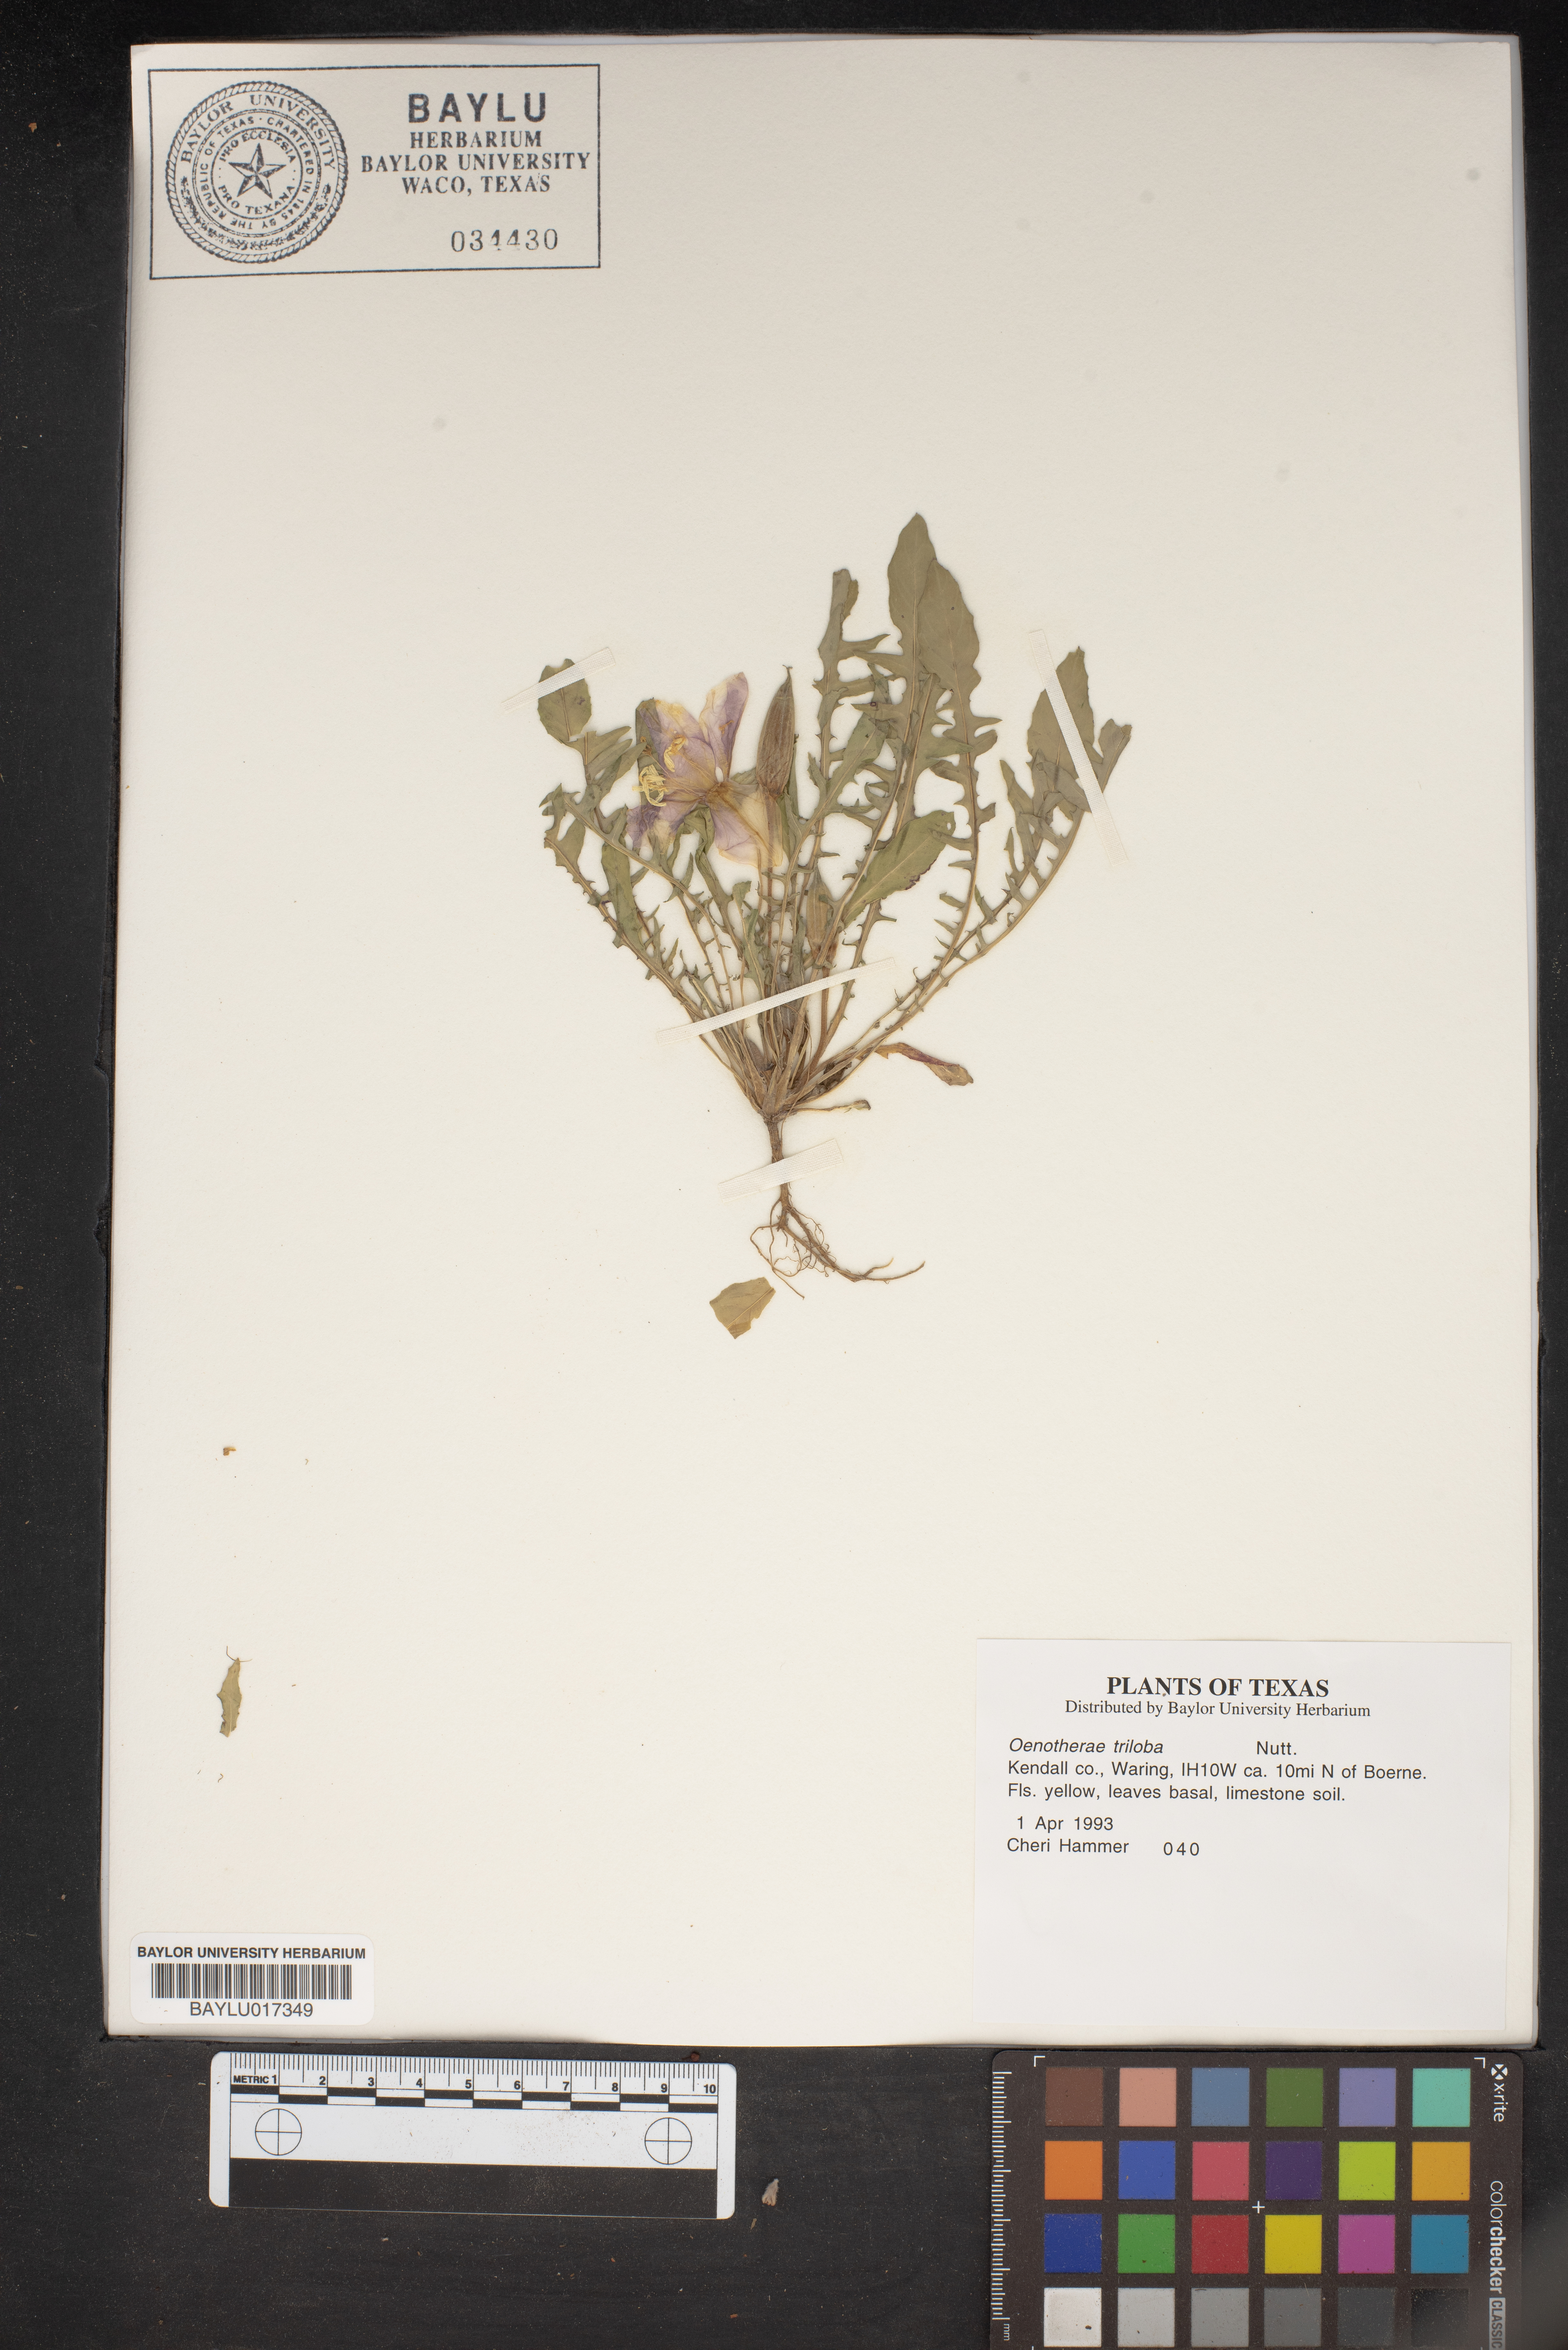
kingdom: Plantae
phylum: Tracheophyta
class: Magnoliopsida
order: Myrtales
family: Onagraceae
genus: Oenothera
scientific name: Oenothera triloba
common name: Sessile evening-primrose
